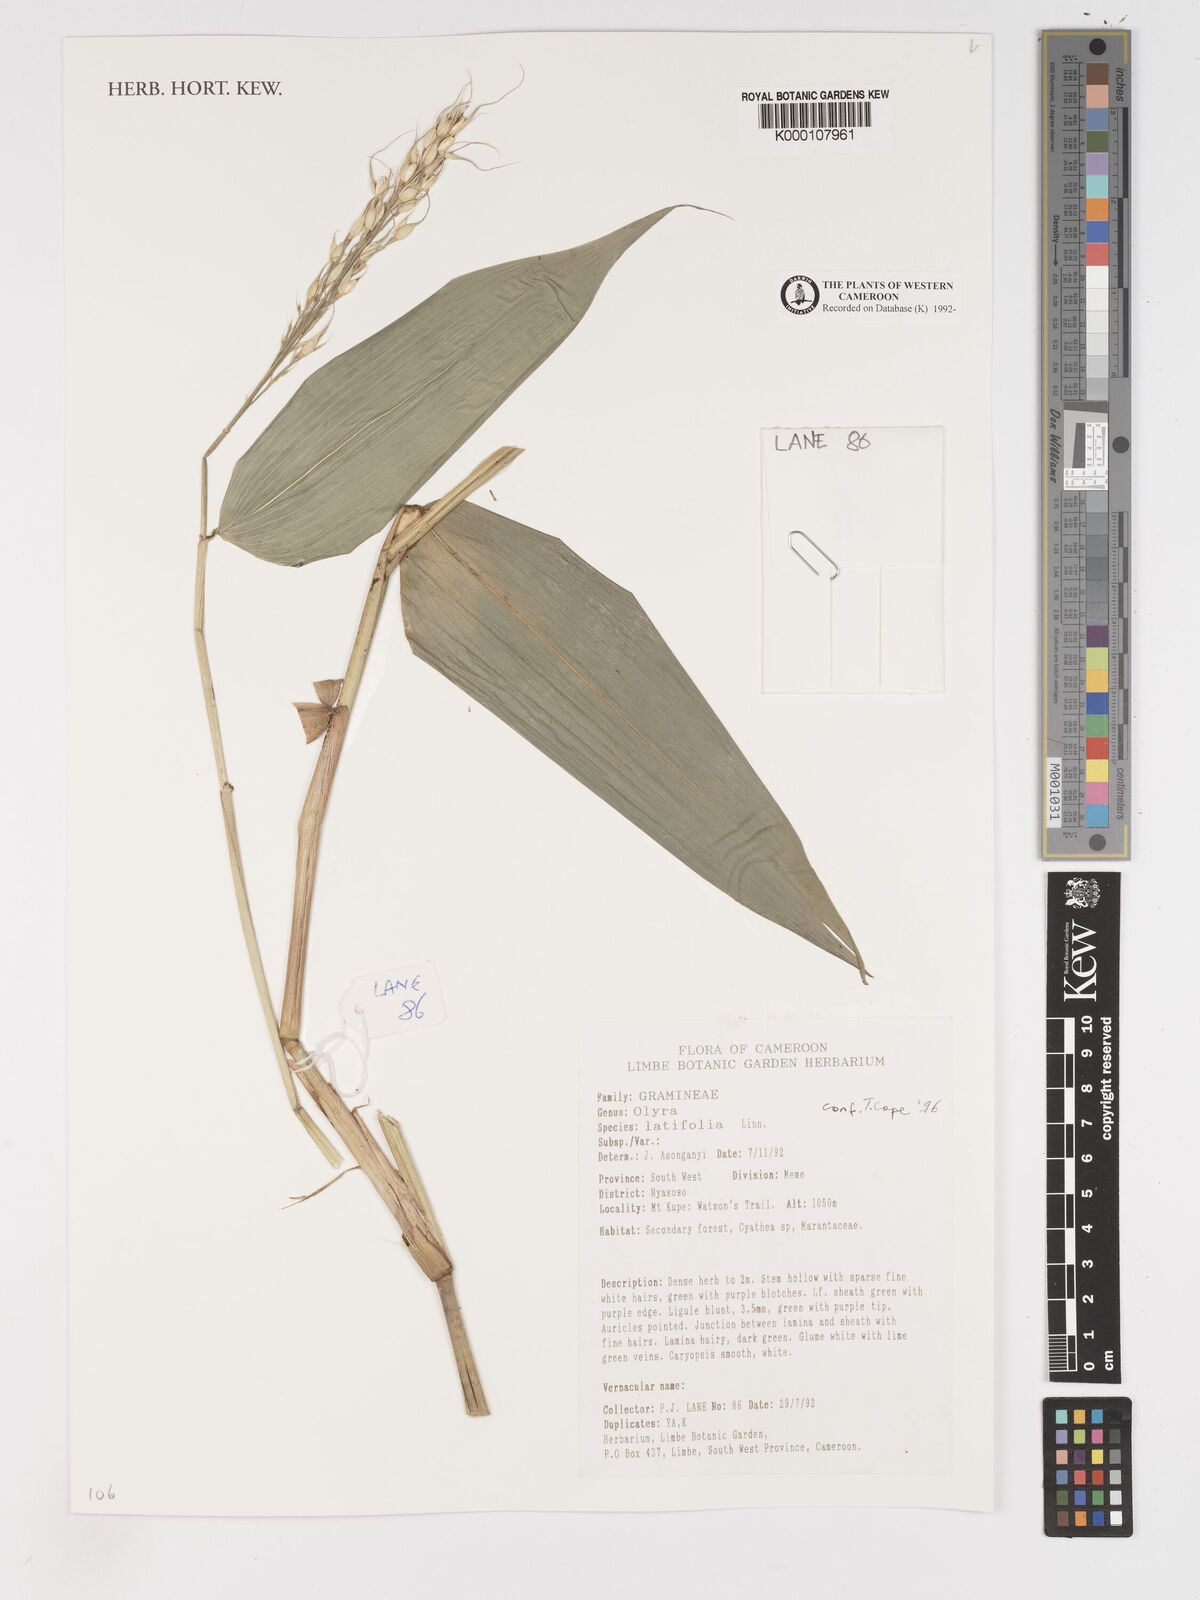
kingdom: Plantae
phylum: Tracheophyta
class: Liliopsida
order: Poales
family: Poaceae
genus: Olyra
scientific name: Olyra latifolia
